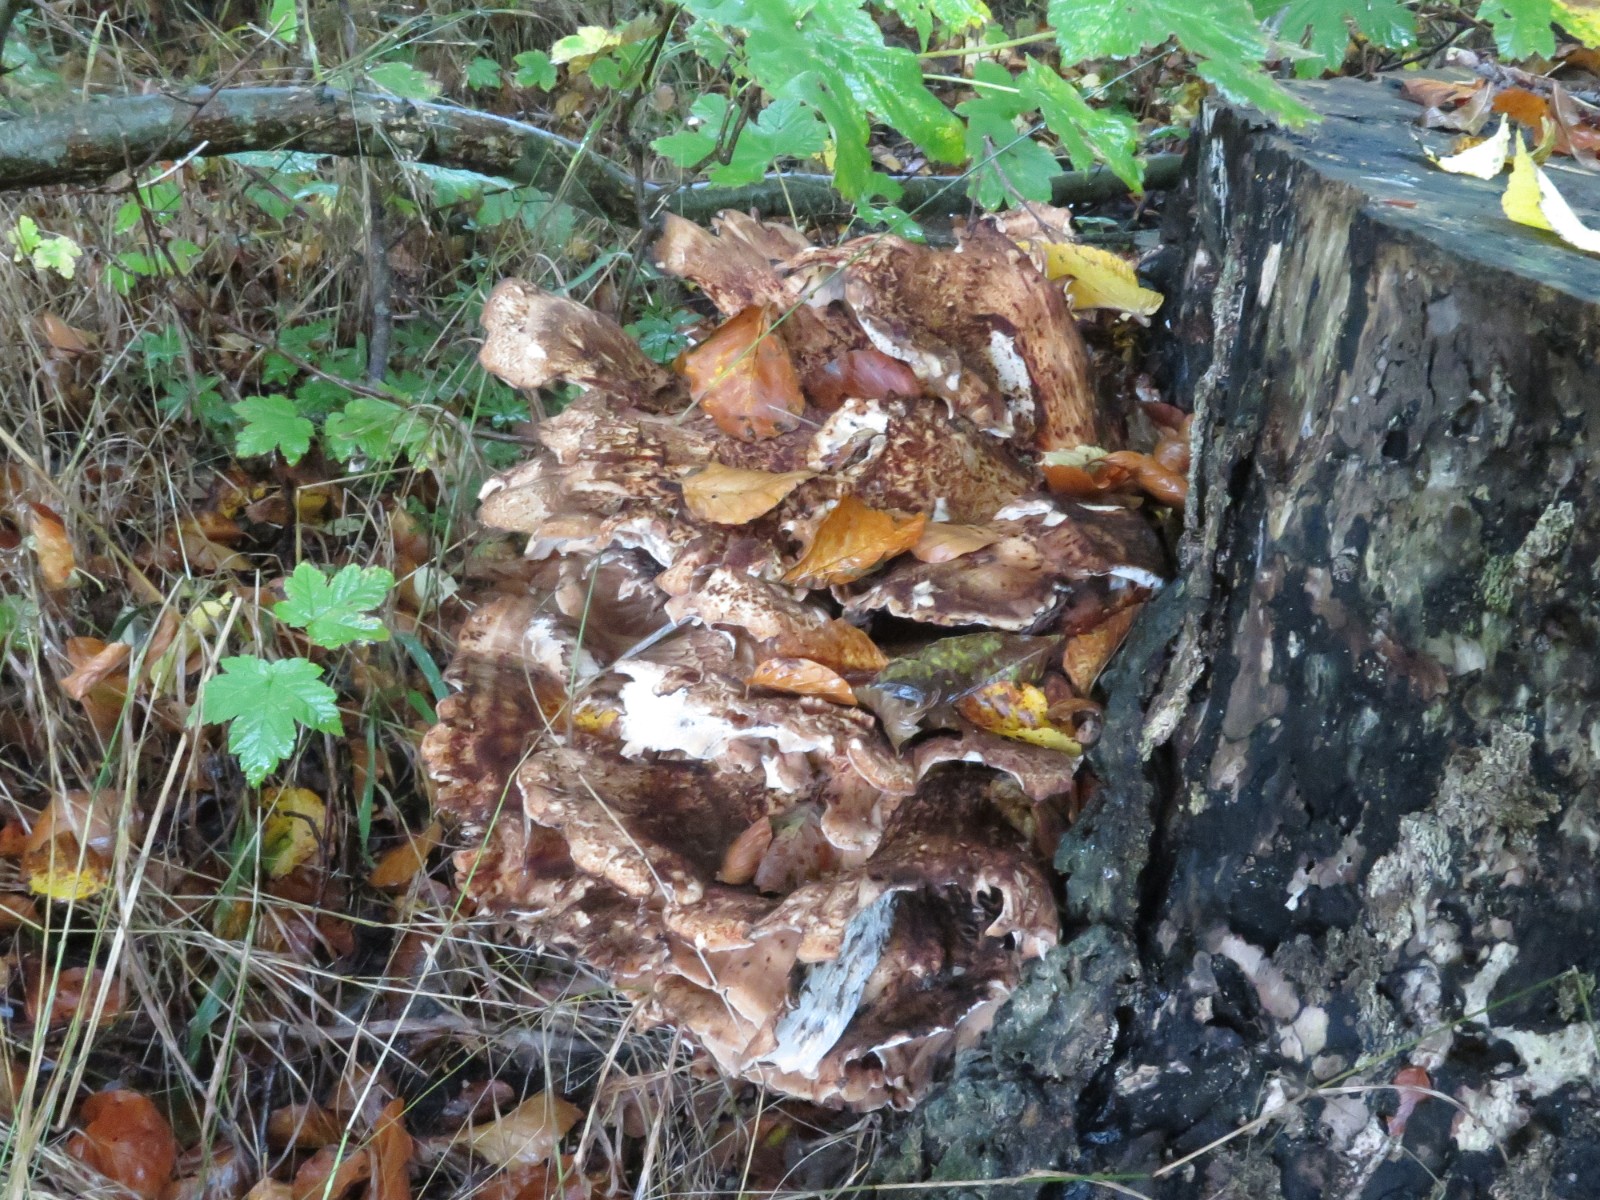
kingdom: Fungi
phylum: Basidiomycota
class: Agaricomycetes
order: Polyporales
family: Meripilaceae
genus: Meripilus
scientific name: Meripilus giganteus
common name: kæmpeporesvamp
